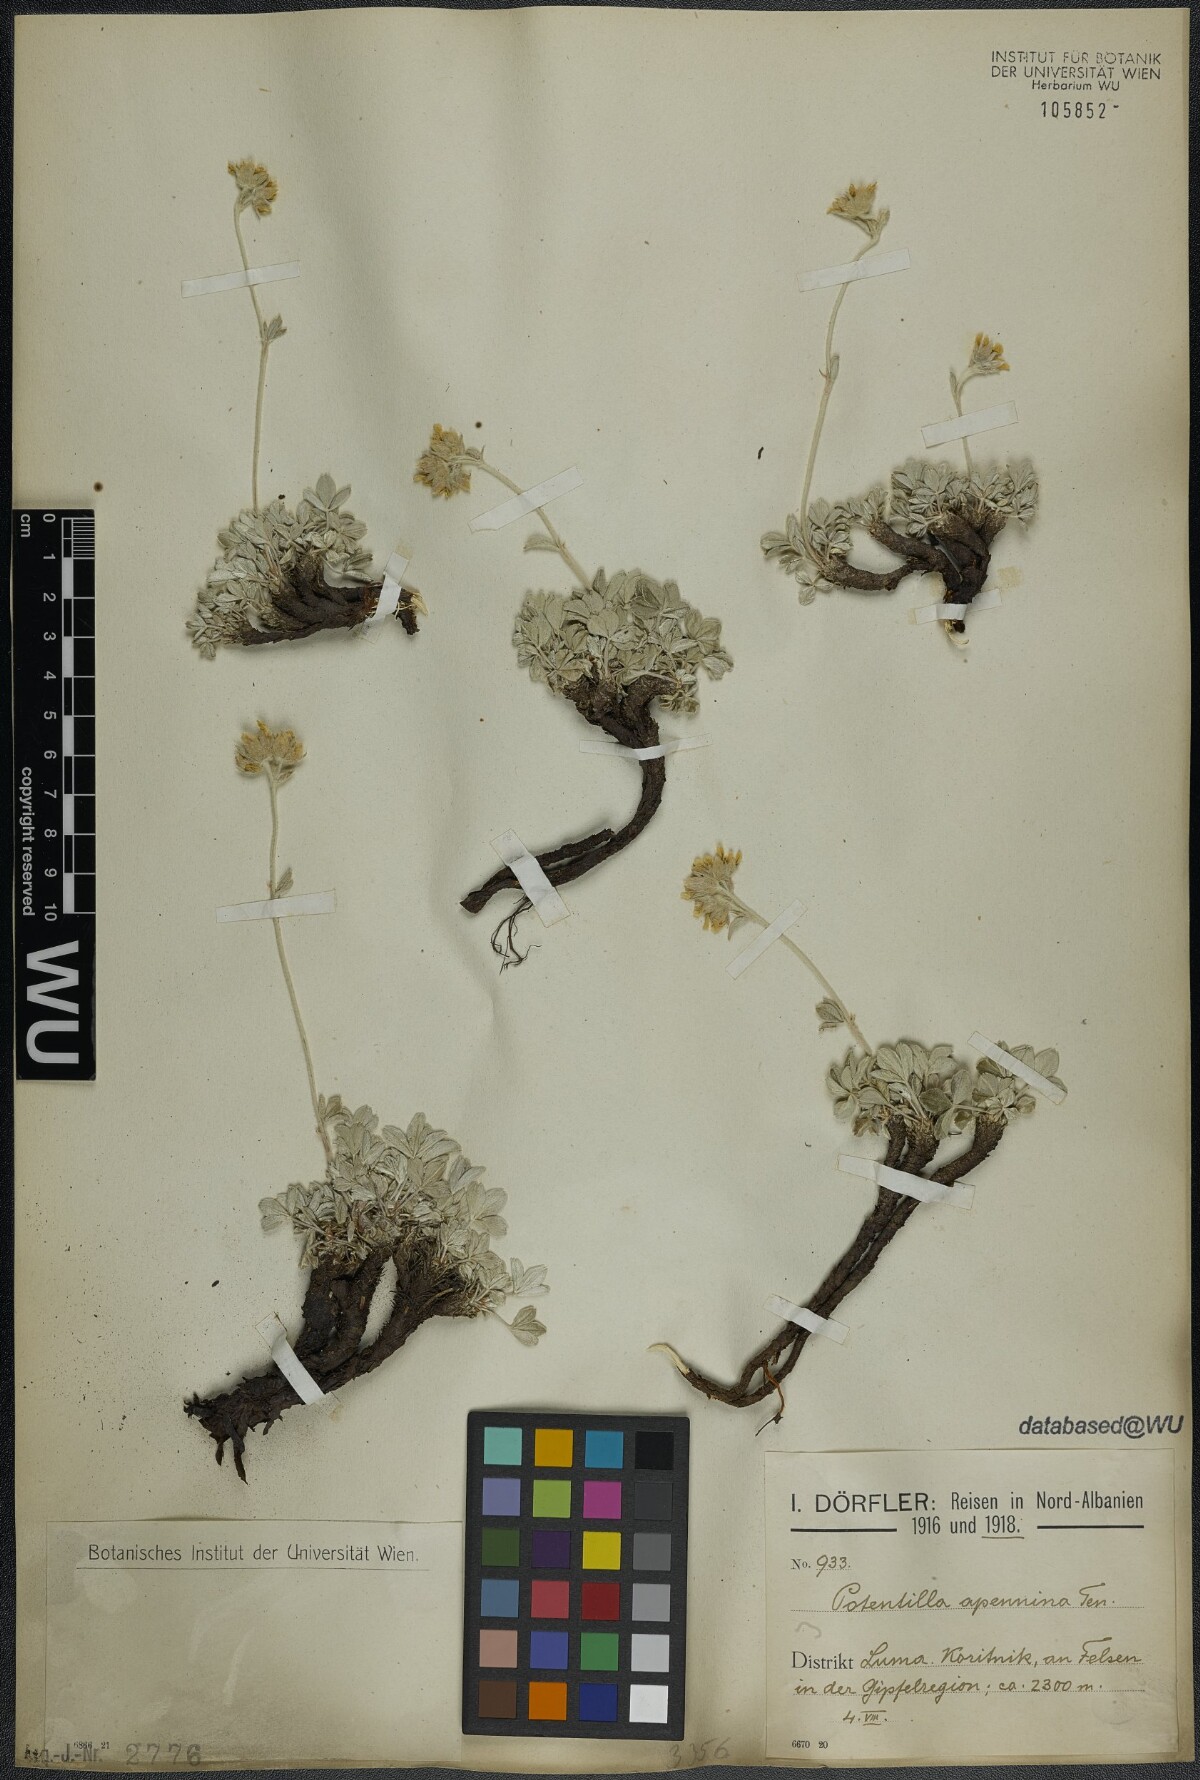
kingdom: Plantae
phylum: Tracheophyta
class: Magnoliopsida
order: Rosales
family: Rosaceae
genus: Potentilla
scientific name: Potentilla apennina
